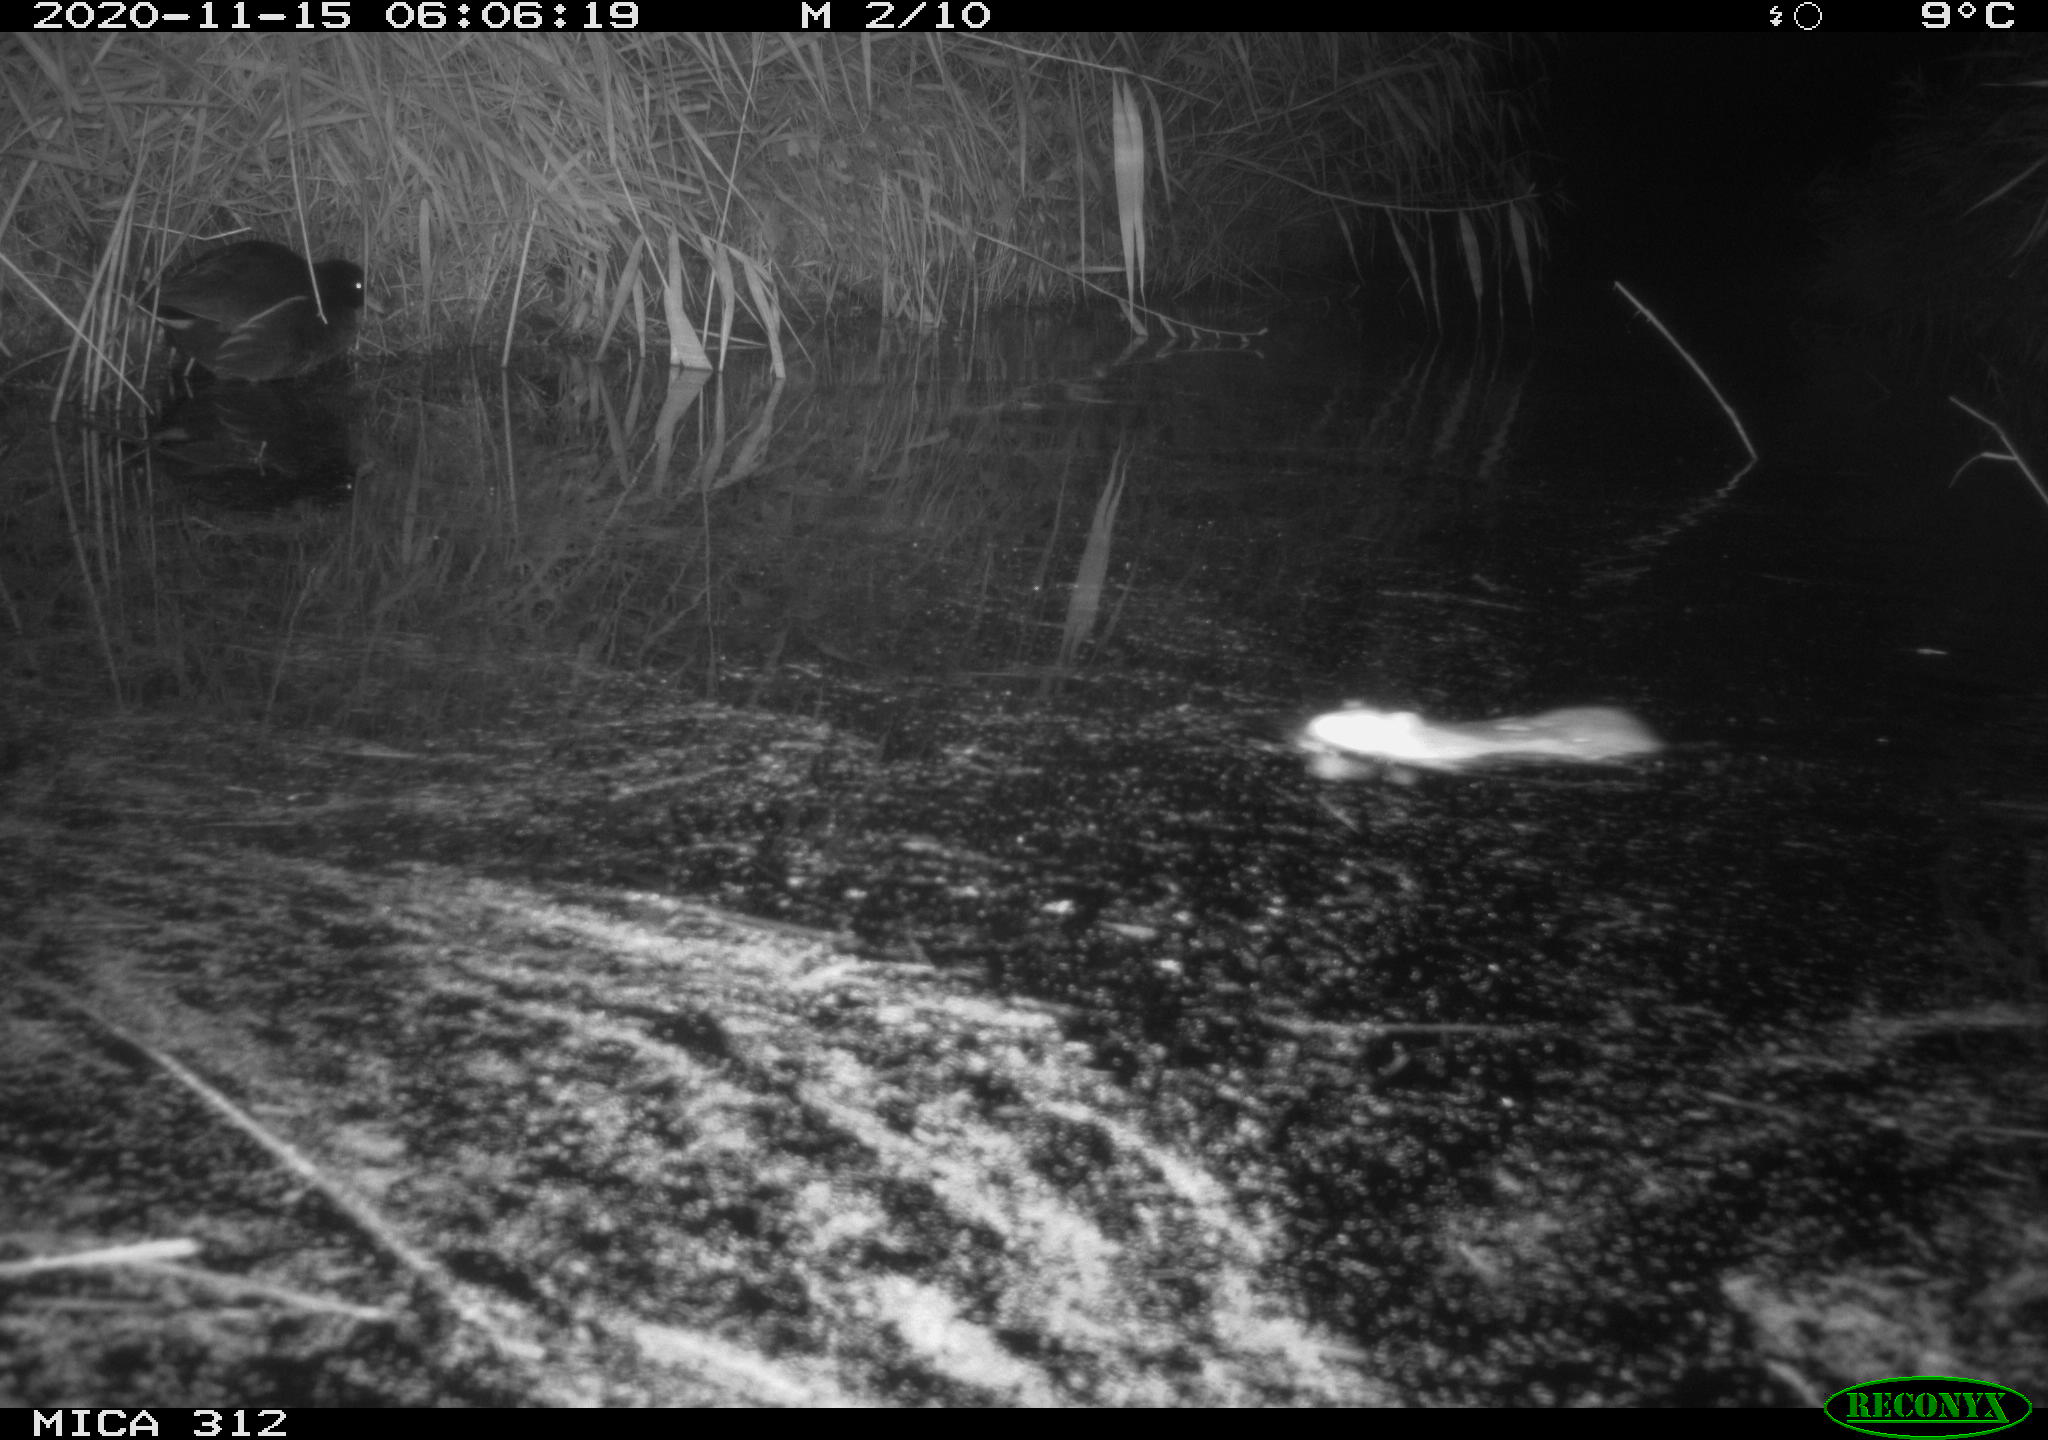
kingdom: Animalia
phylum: Chordata
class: Mammalia
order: Rodentia
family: Muridae
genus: Rattus
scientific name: Rattus norvegicus
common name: Brown rat
